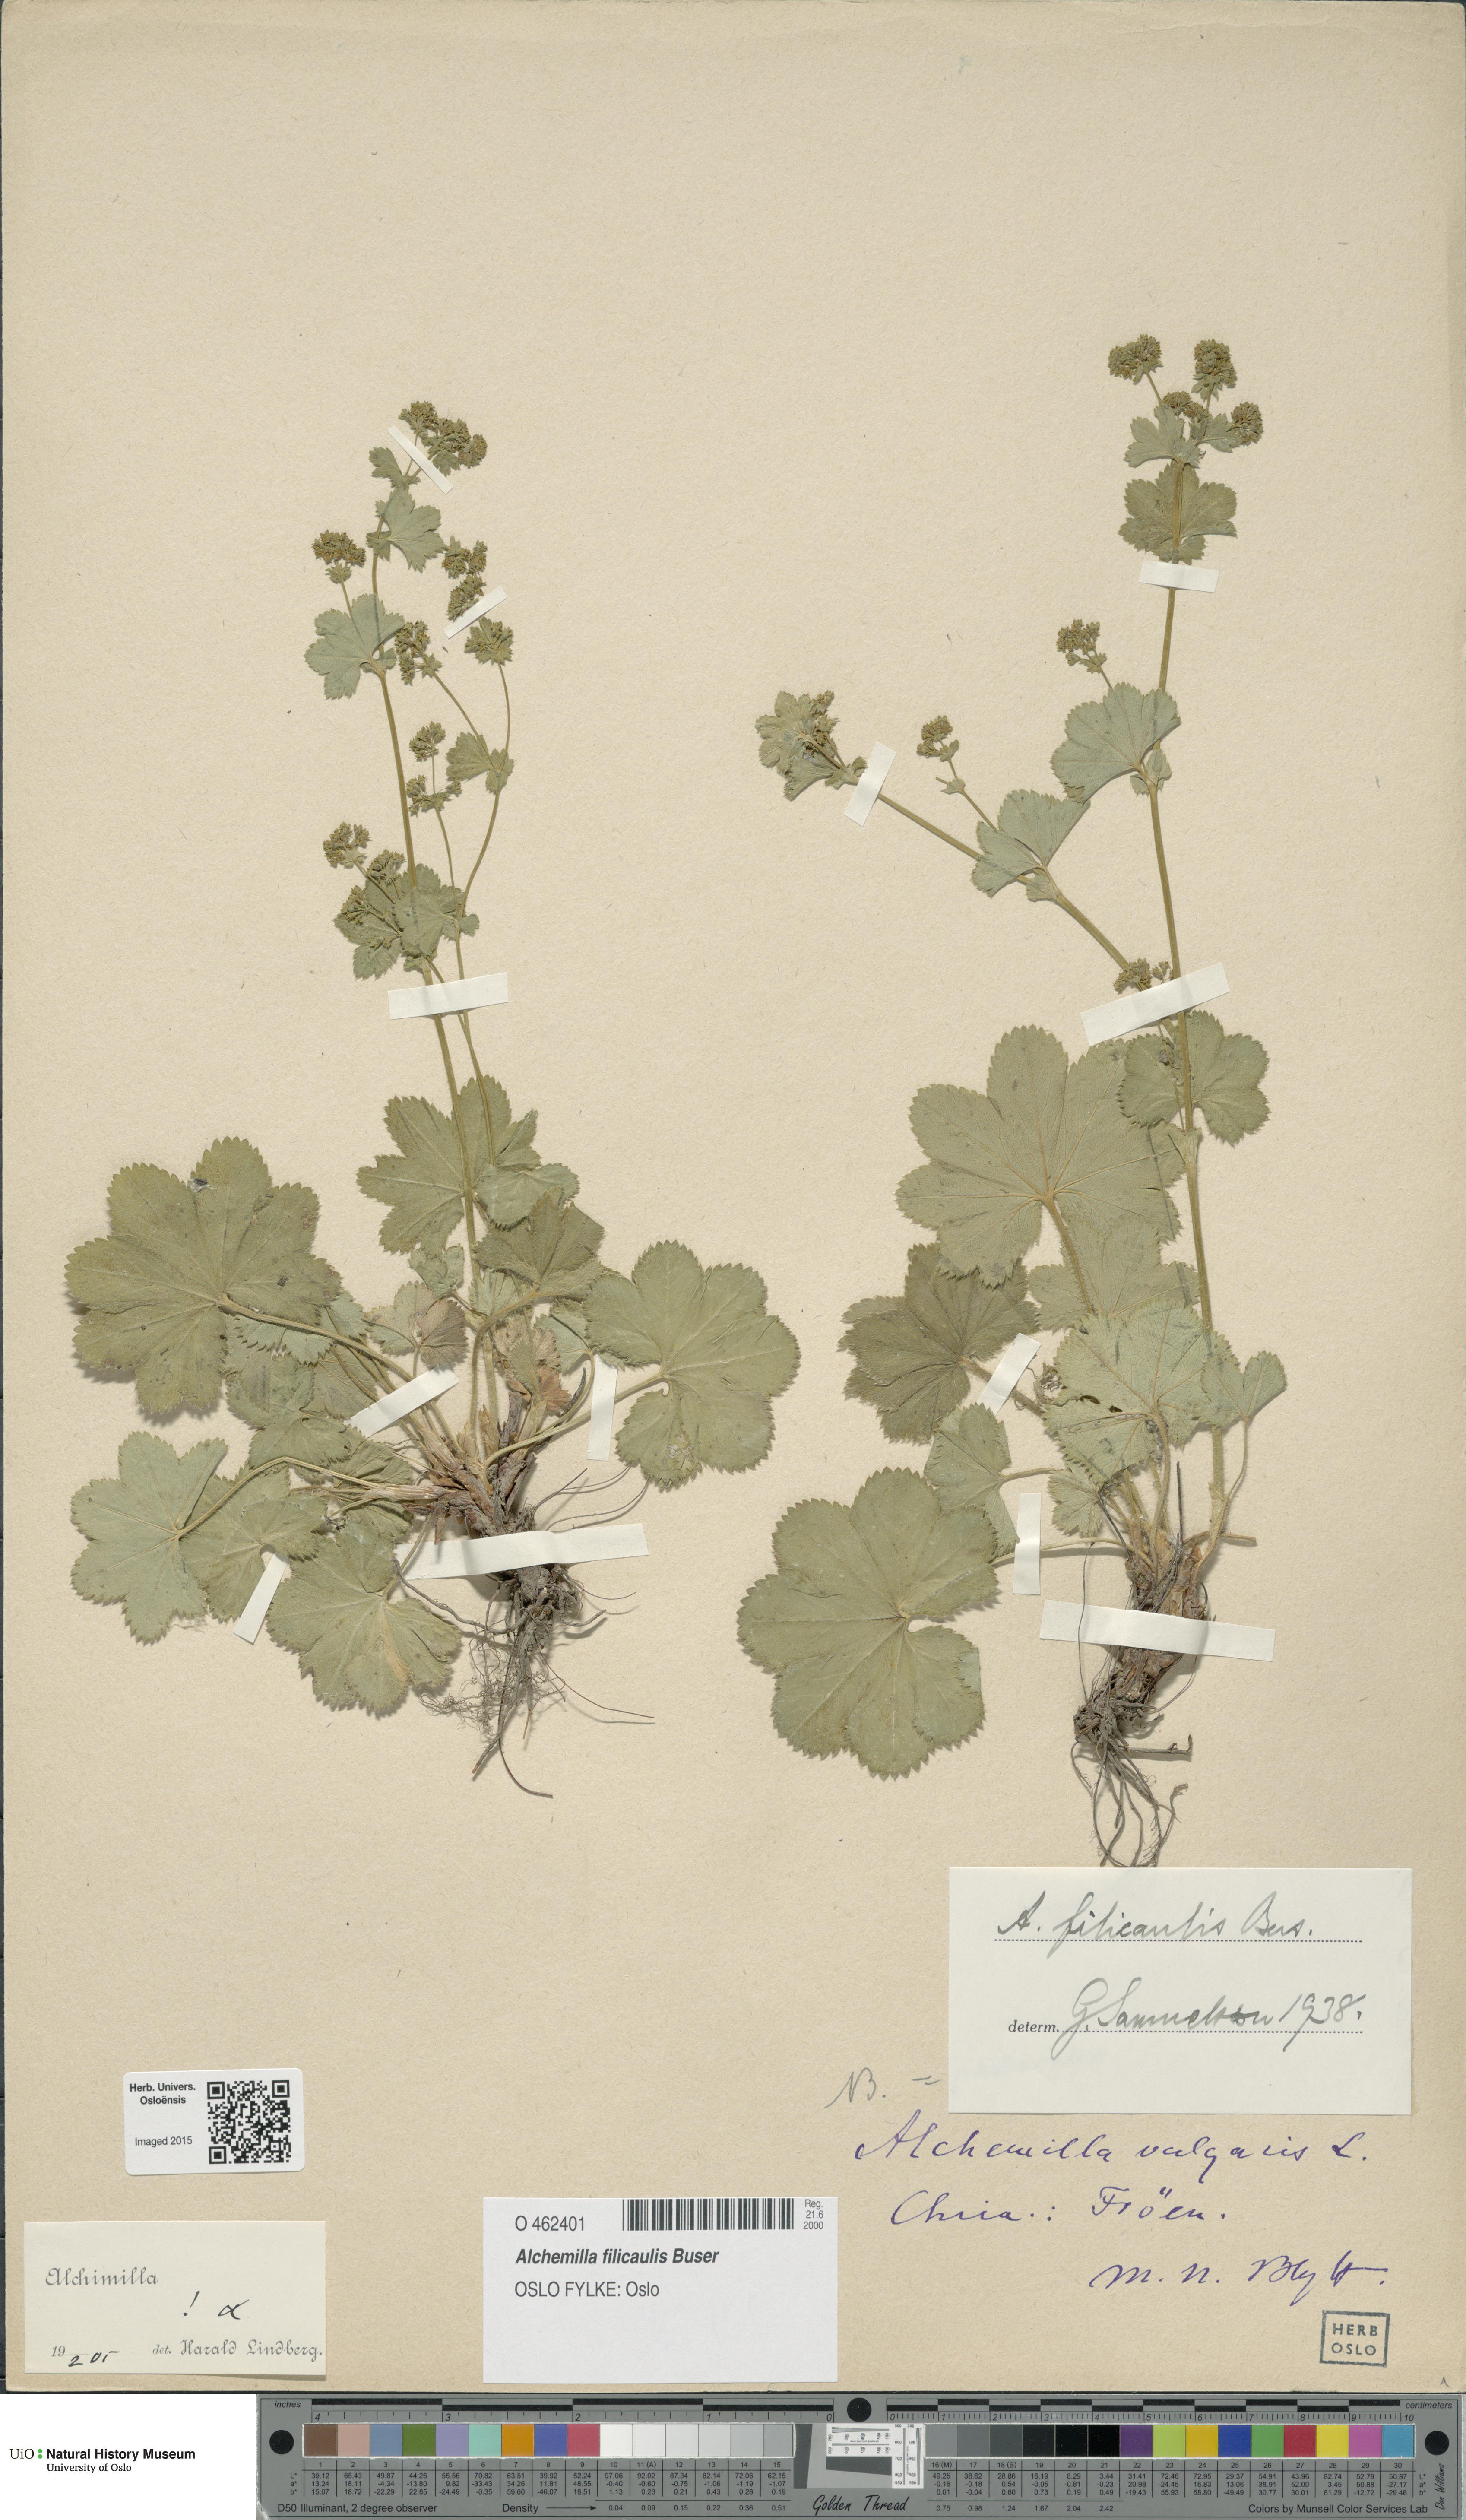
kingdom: Plantae
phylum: Tracheophyta
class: Magnoliopsida
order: Rosales
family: Rosaceae
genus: Alchemilla
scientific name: Alchemilla filicaulis
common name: Hairy lady's-mantle
